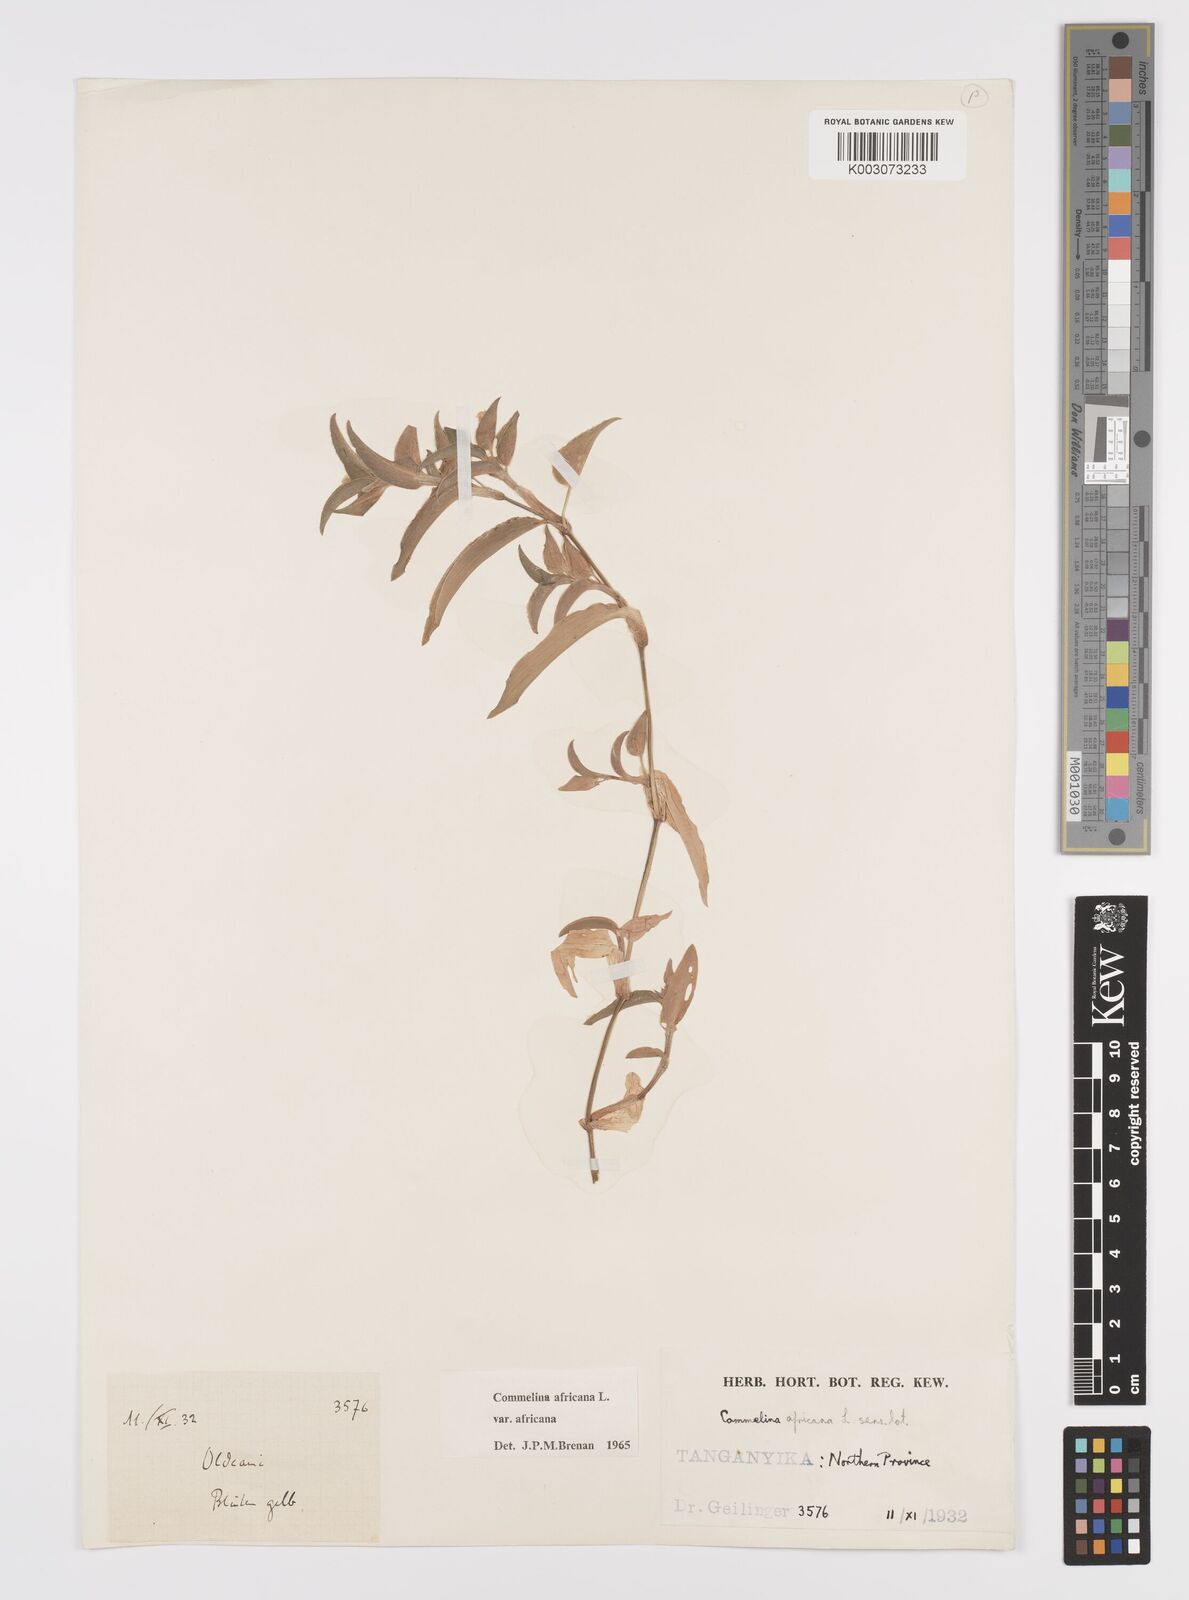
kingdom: Plantae
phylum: Tracheophyta
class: Liliopsida
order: Commelinales
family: Commelinaceae
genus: Commelina
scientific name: Commelina africana
